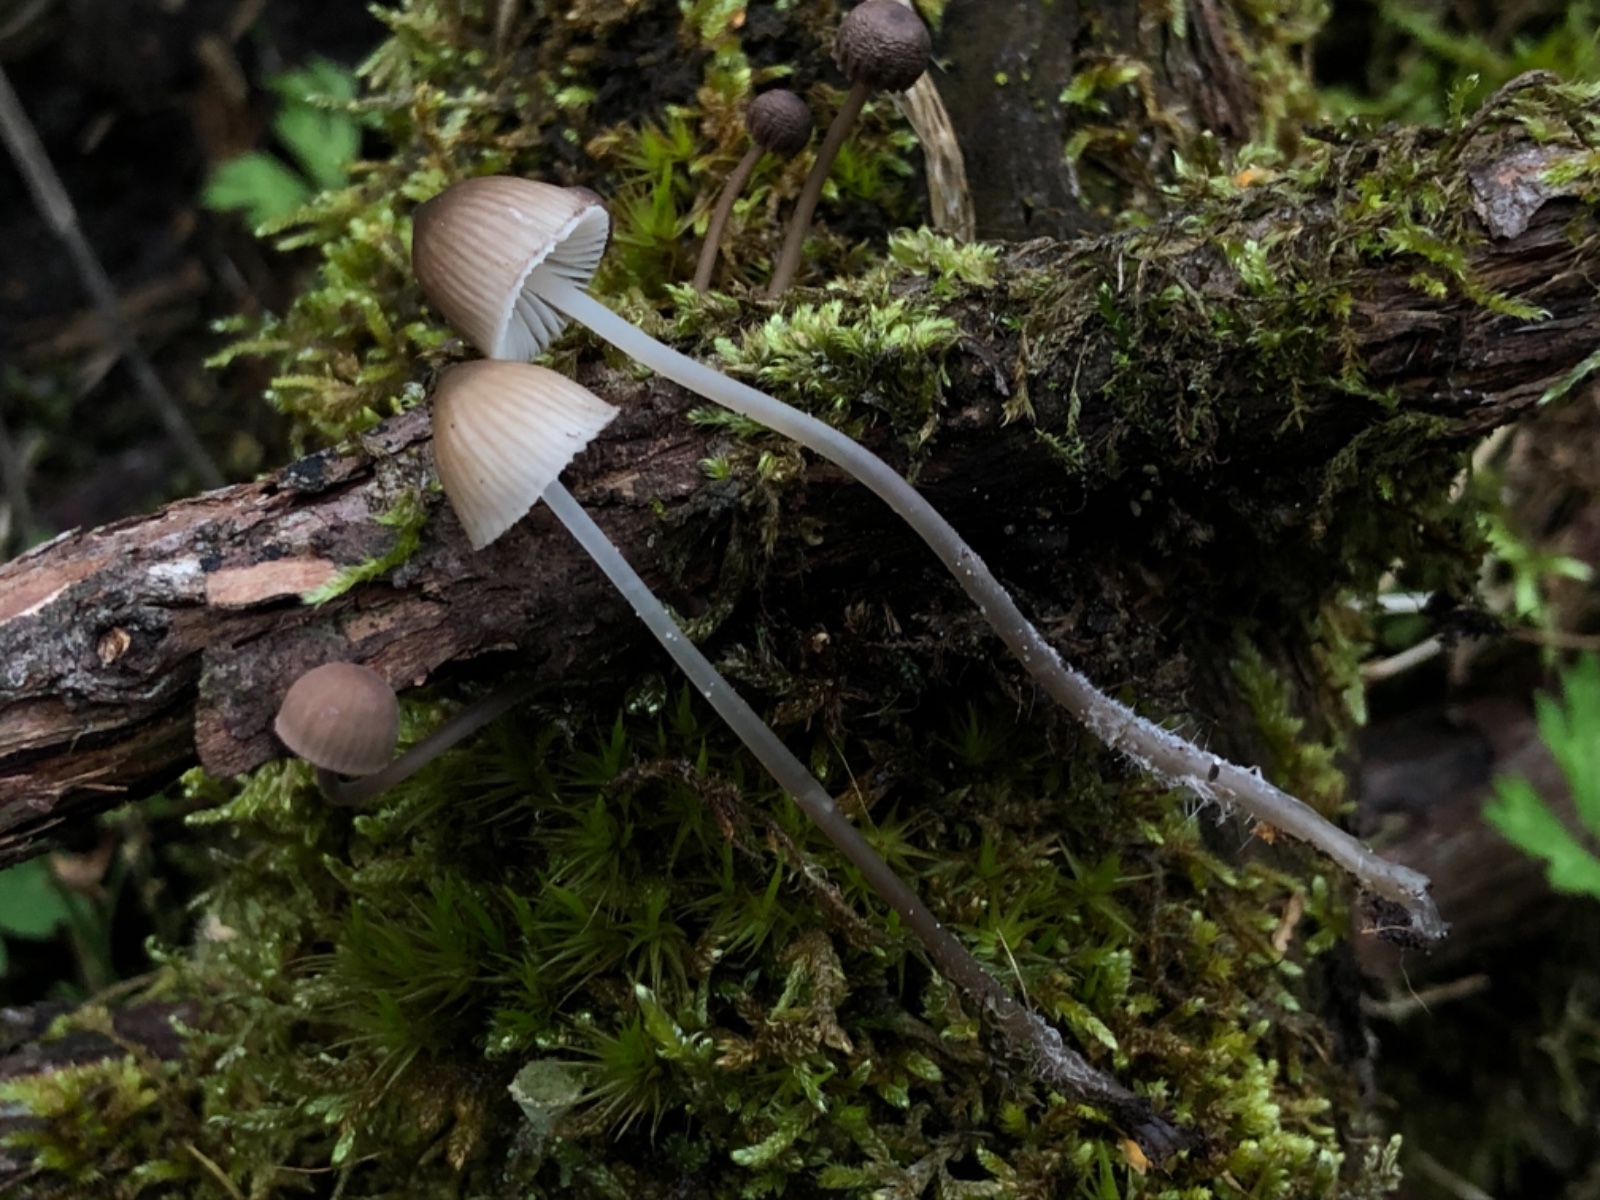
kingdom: Fungi
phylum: Basidiomycota
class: Agaricomycetes
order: Agaricales
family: Mycenaceae
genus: Mycena
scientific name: Mycena
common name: huesvamp
